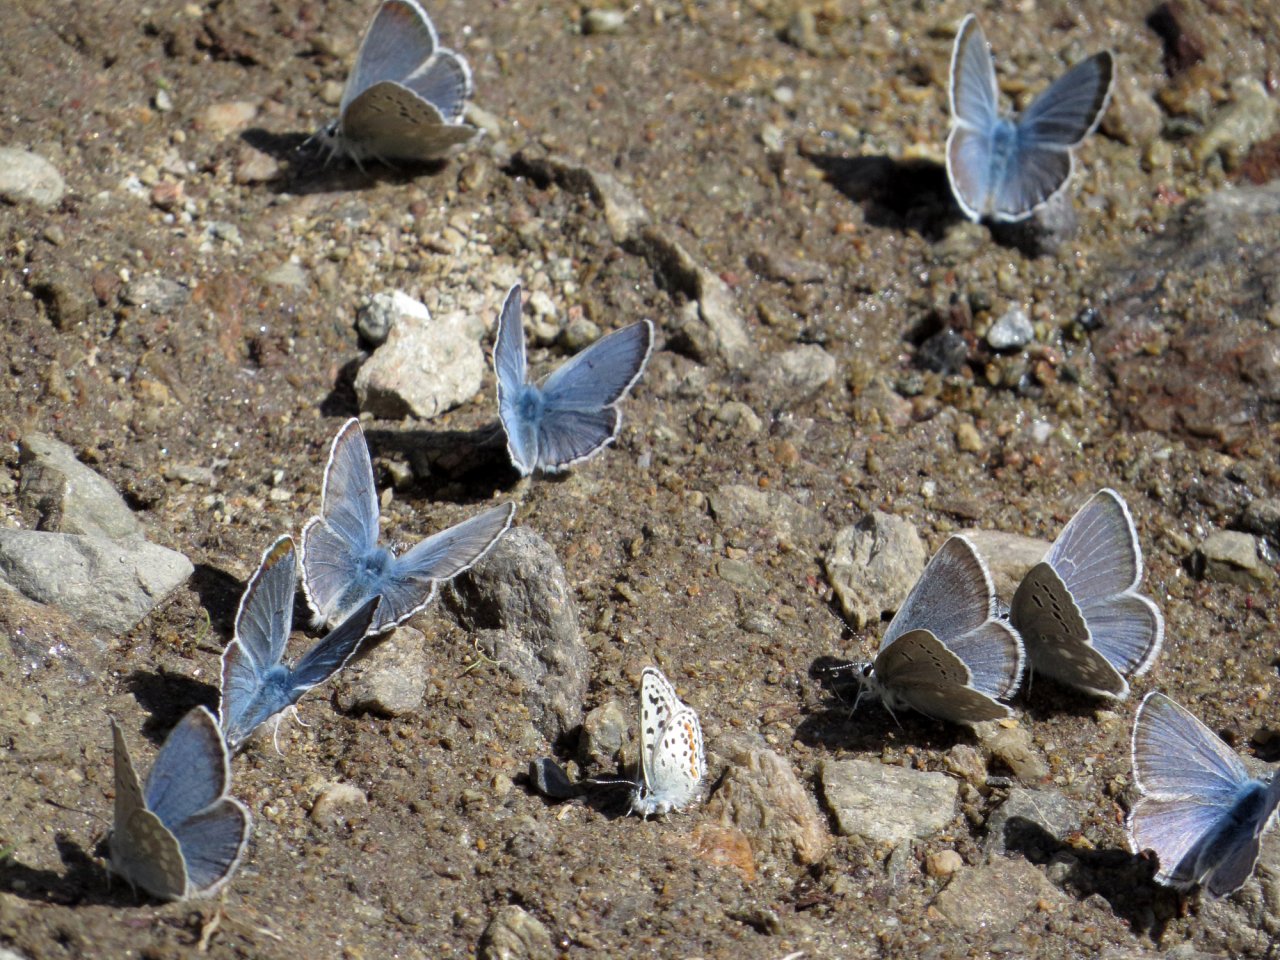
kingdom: Animalia
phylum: Arthropoda
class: Insecta
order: Lepidoptera
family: Lycaenidae
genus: Icaricia
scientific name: Icaricia icarioides
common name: Boisduval's Blue
